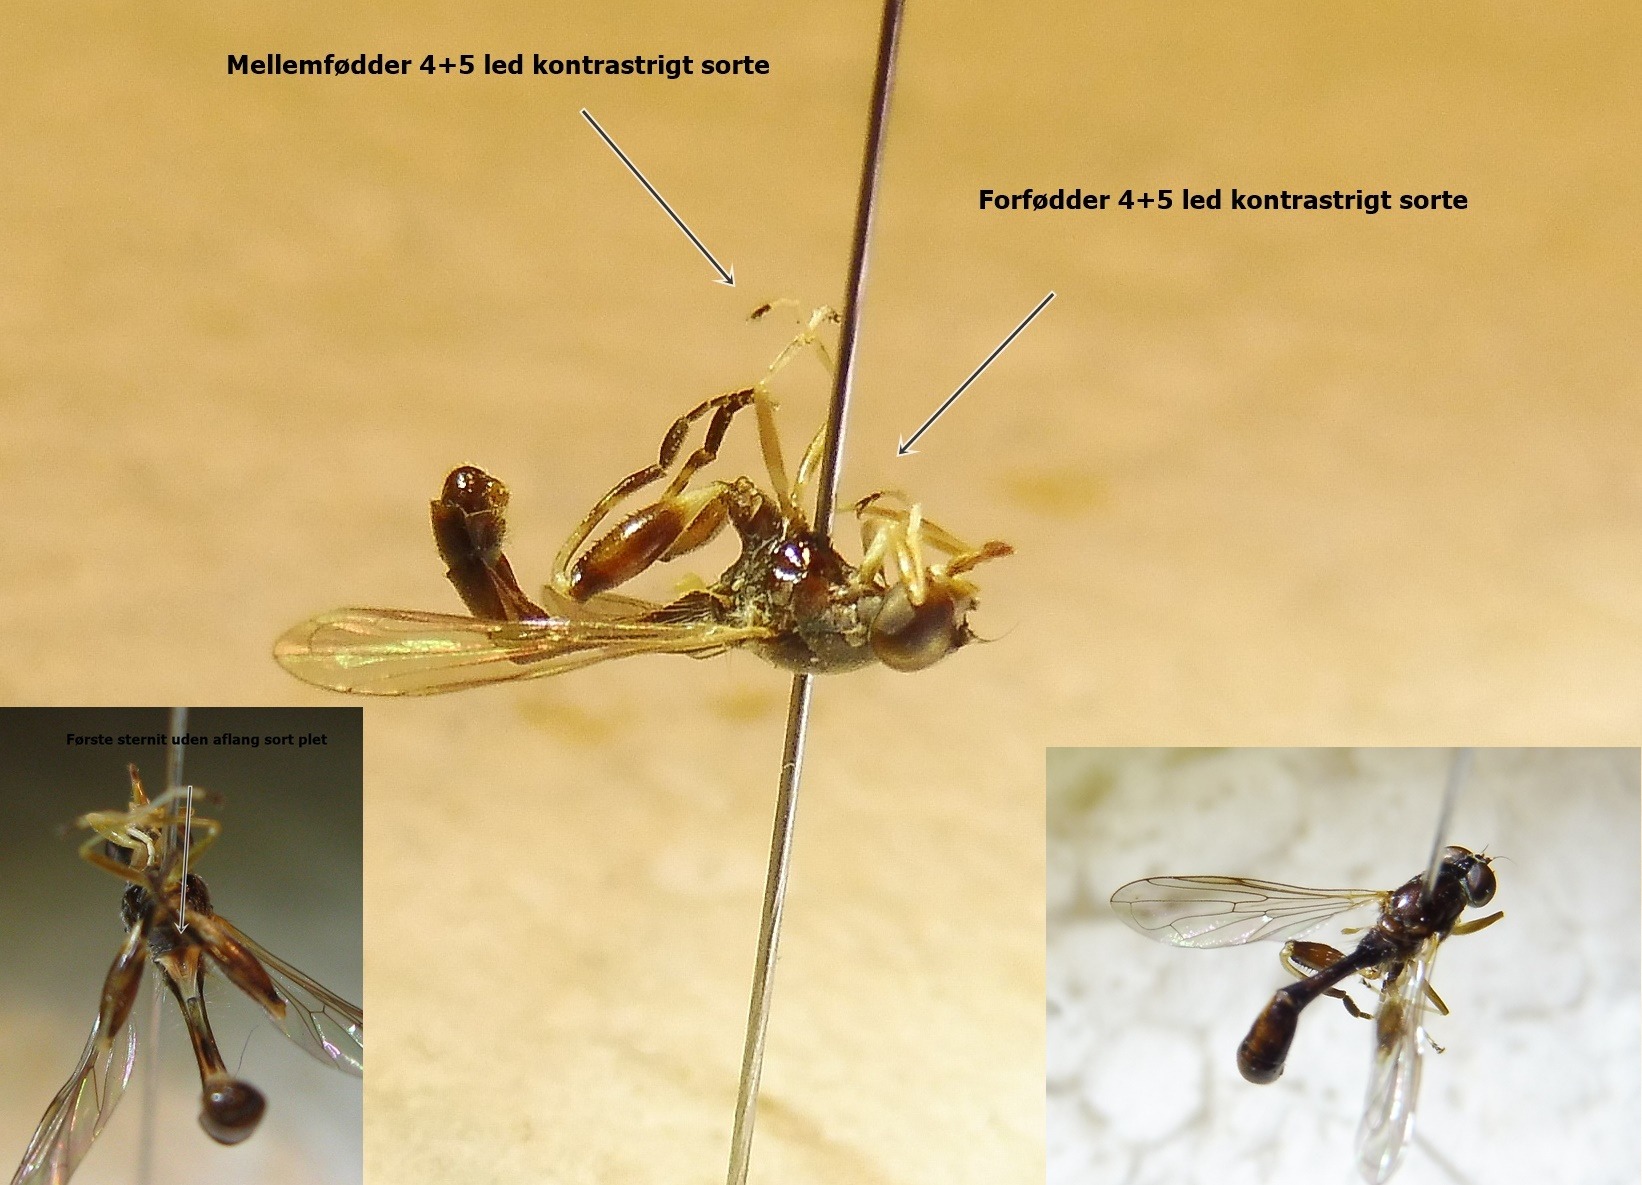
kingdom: Animalia
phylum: Arthropoda
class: Insecta
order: Diptera
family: Syrphidae
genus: Sphegina
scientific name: Sphegina sibirica
